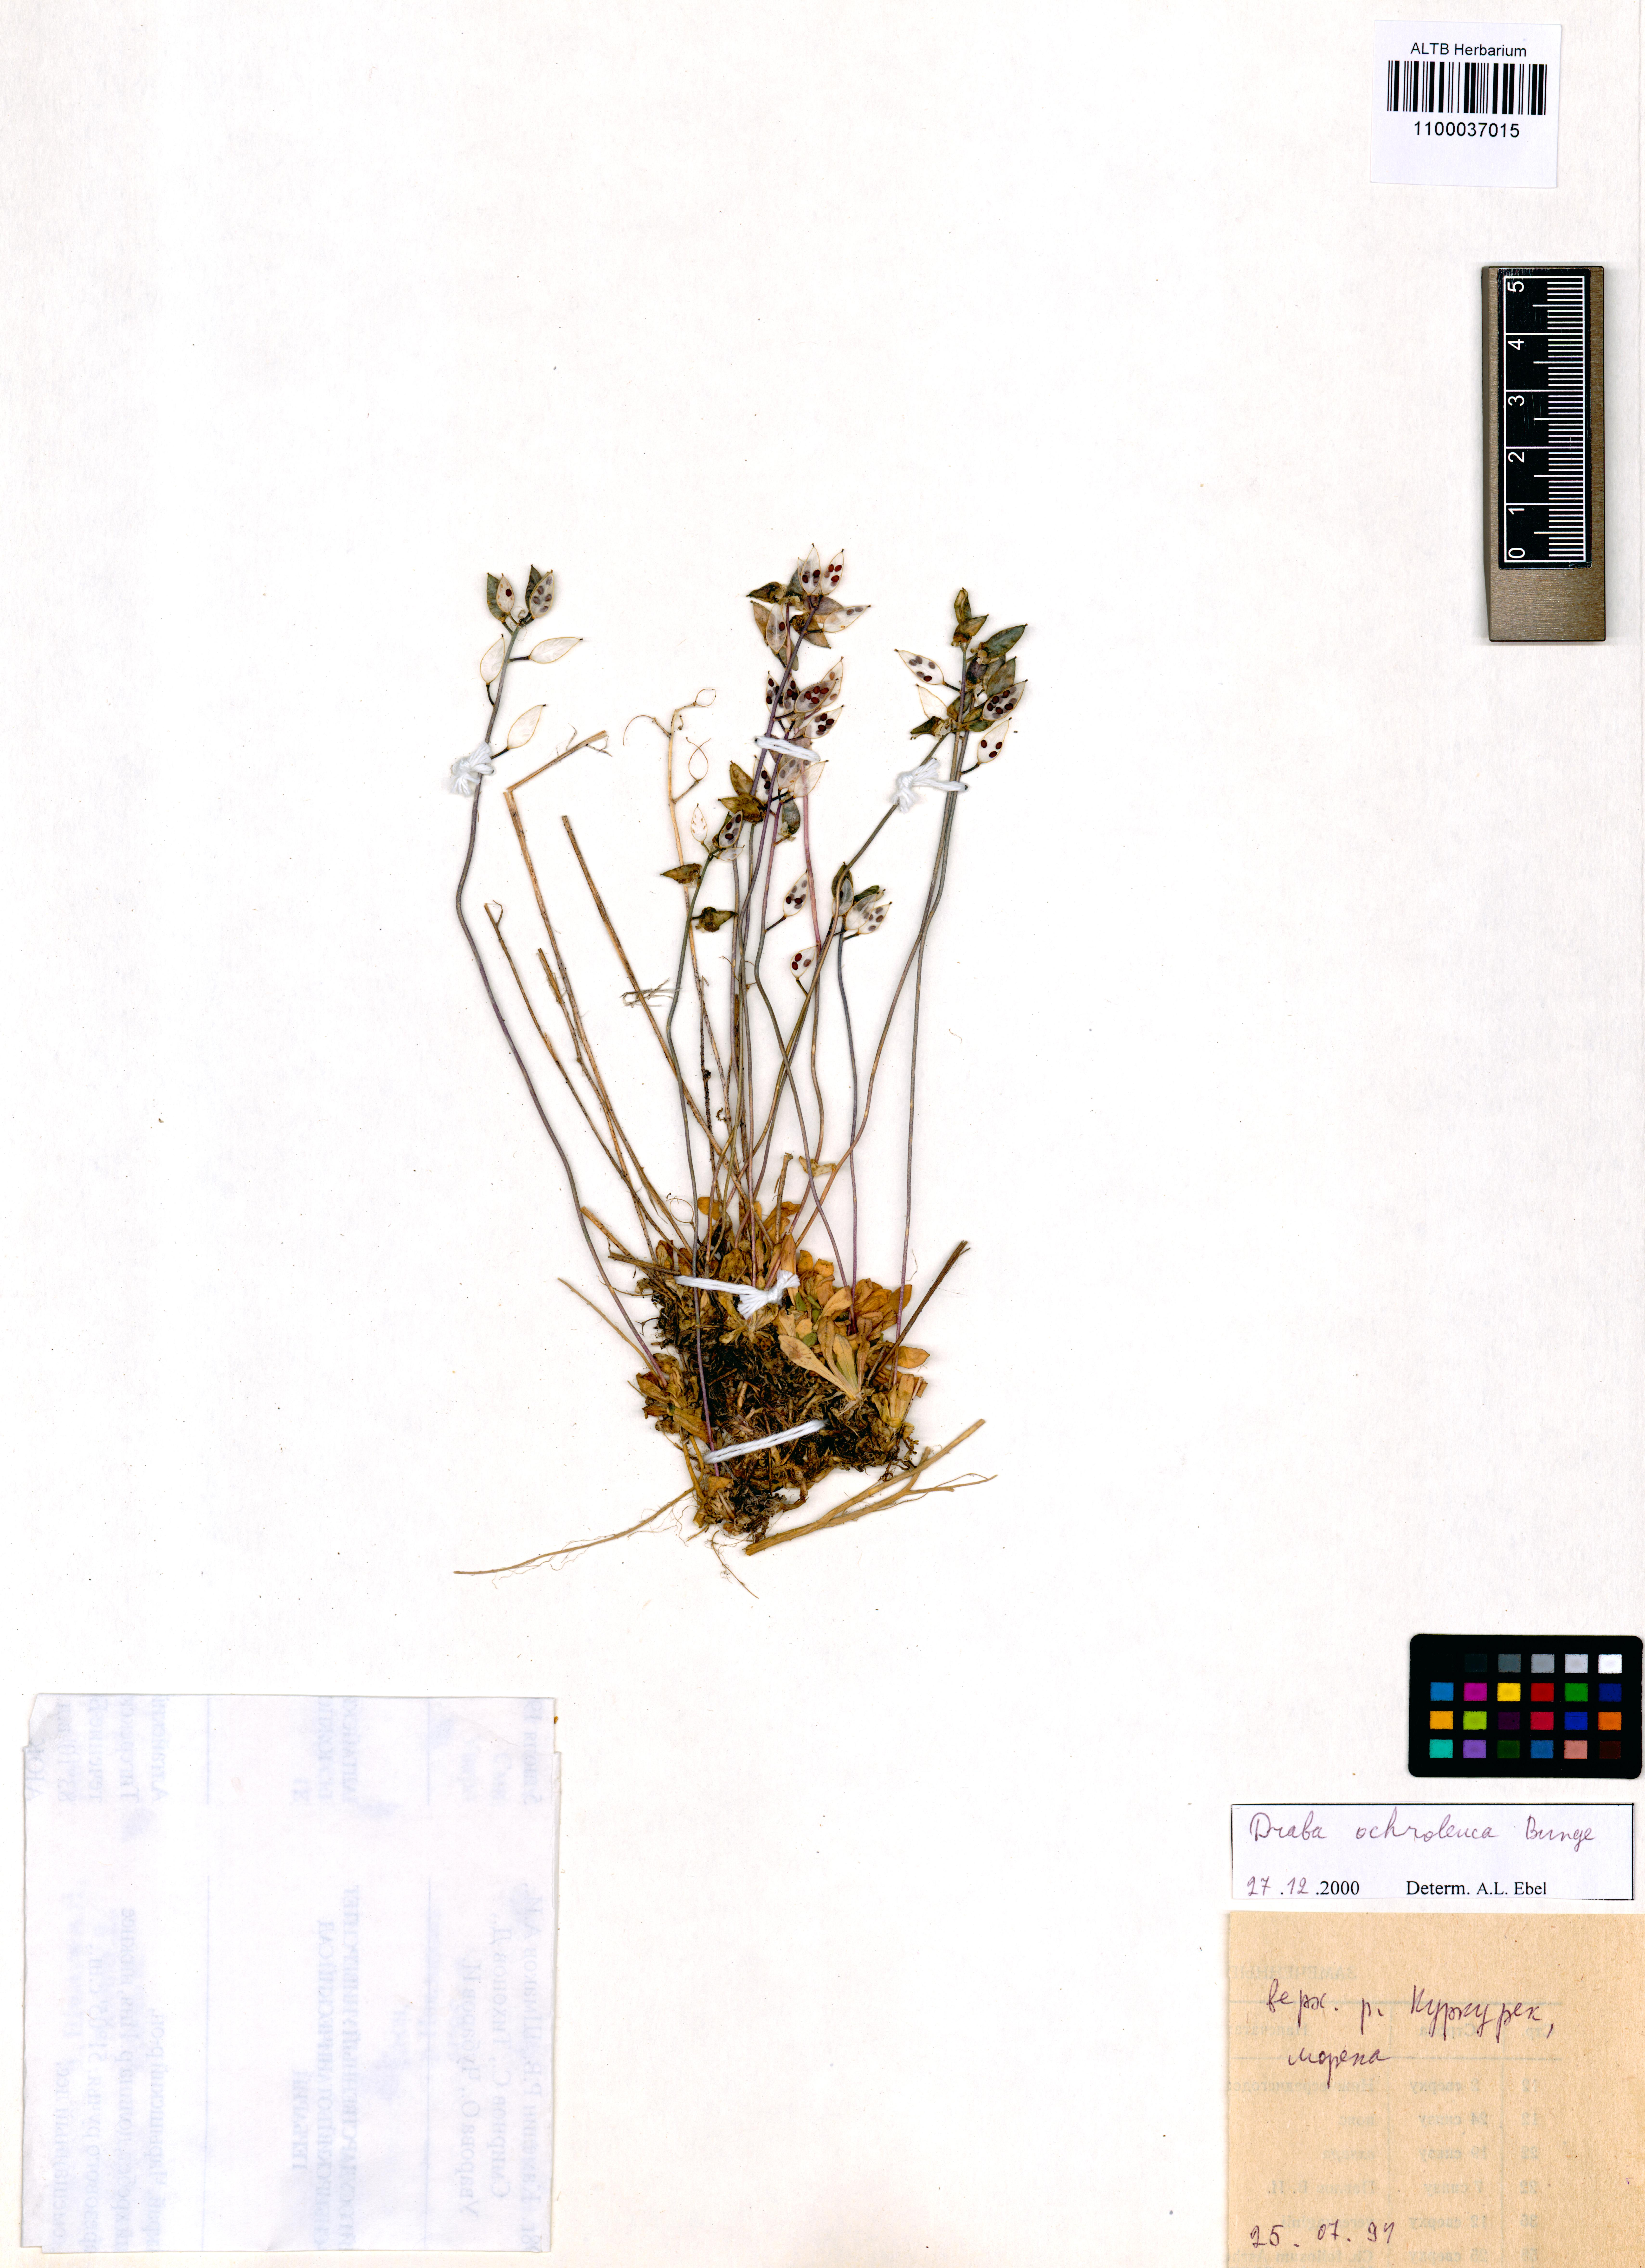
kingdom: Plantae
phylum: Tracheophyta
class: Magnoliopsida
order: Brassicales
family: Brassicaceae
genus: Draba
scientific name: Draba ochroleuca
